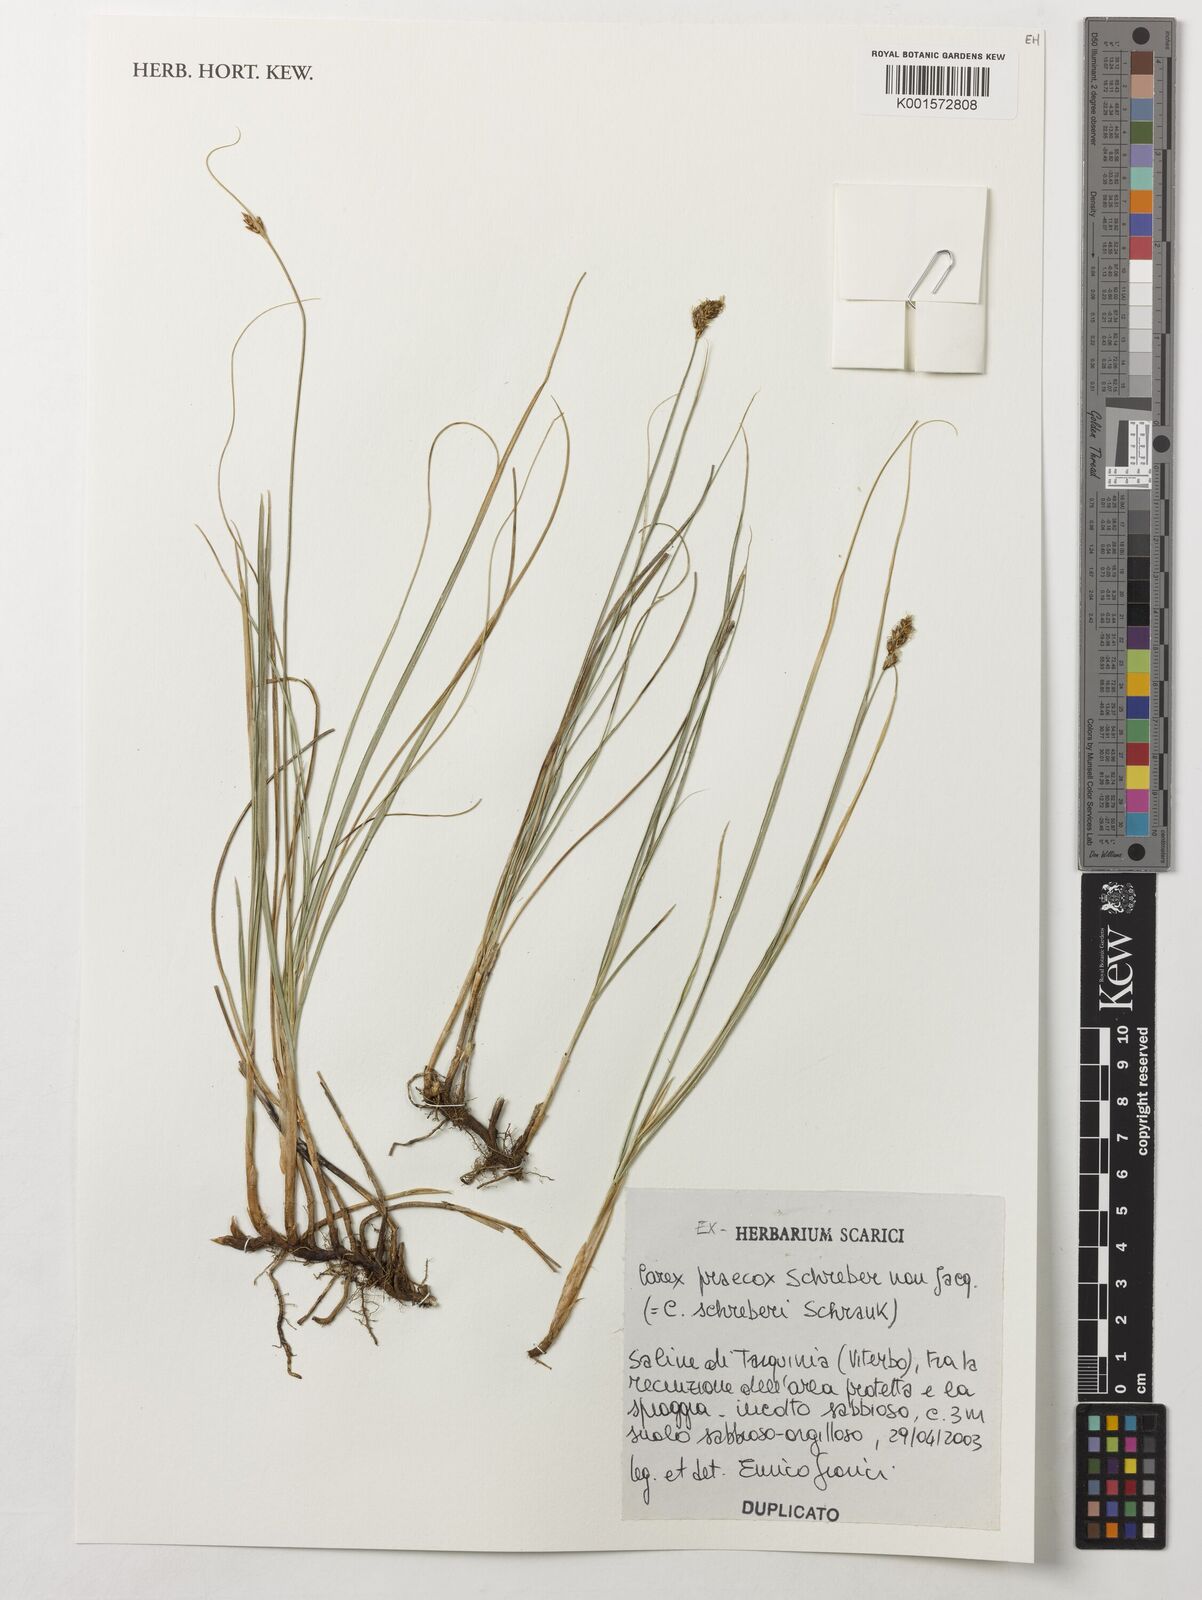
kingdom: Plantae
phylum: Tracheophyta
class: Liliopsida
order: Poales
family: Cyperaceae
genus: Carex
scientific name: Carex praecox
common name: Early sedge
